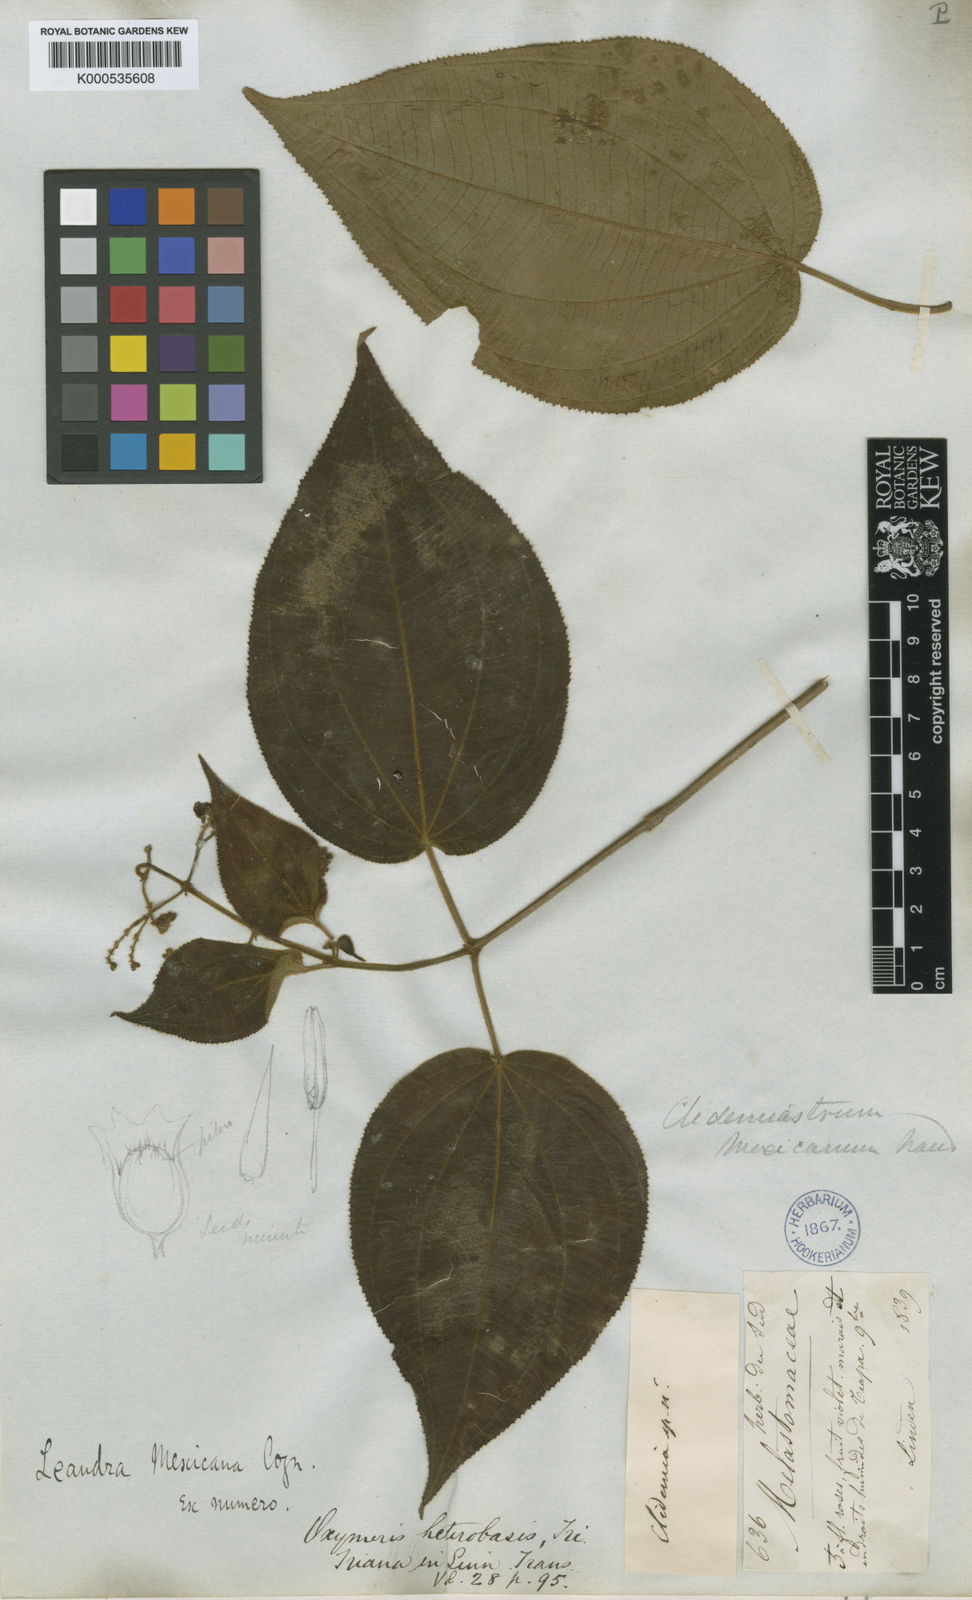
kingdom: Plantae
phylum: Tracheophyta
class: Magnoliopsida
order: Myrtales
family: Melastomataceae
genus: Miconia
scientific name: Miconia secunmexicana
